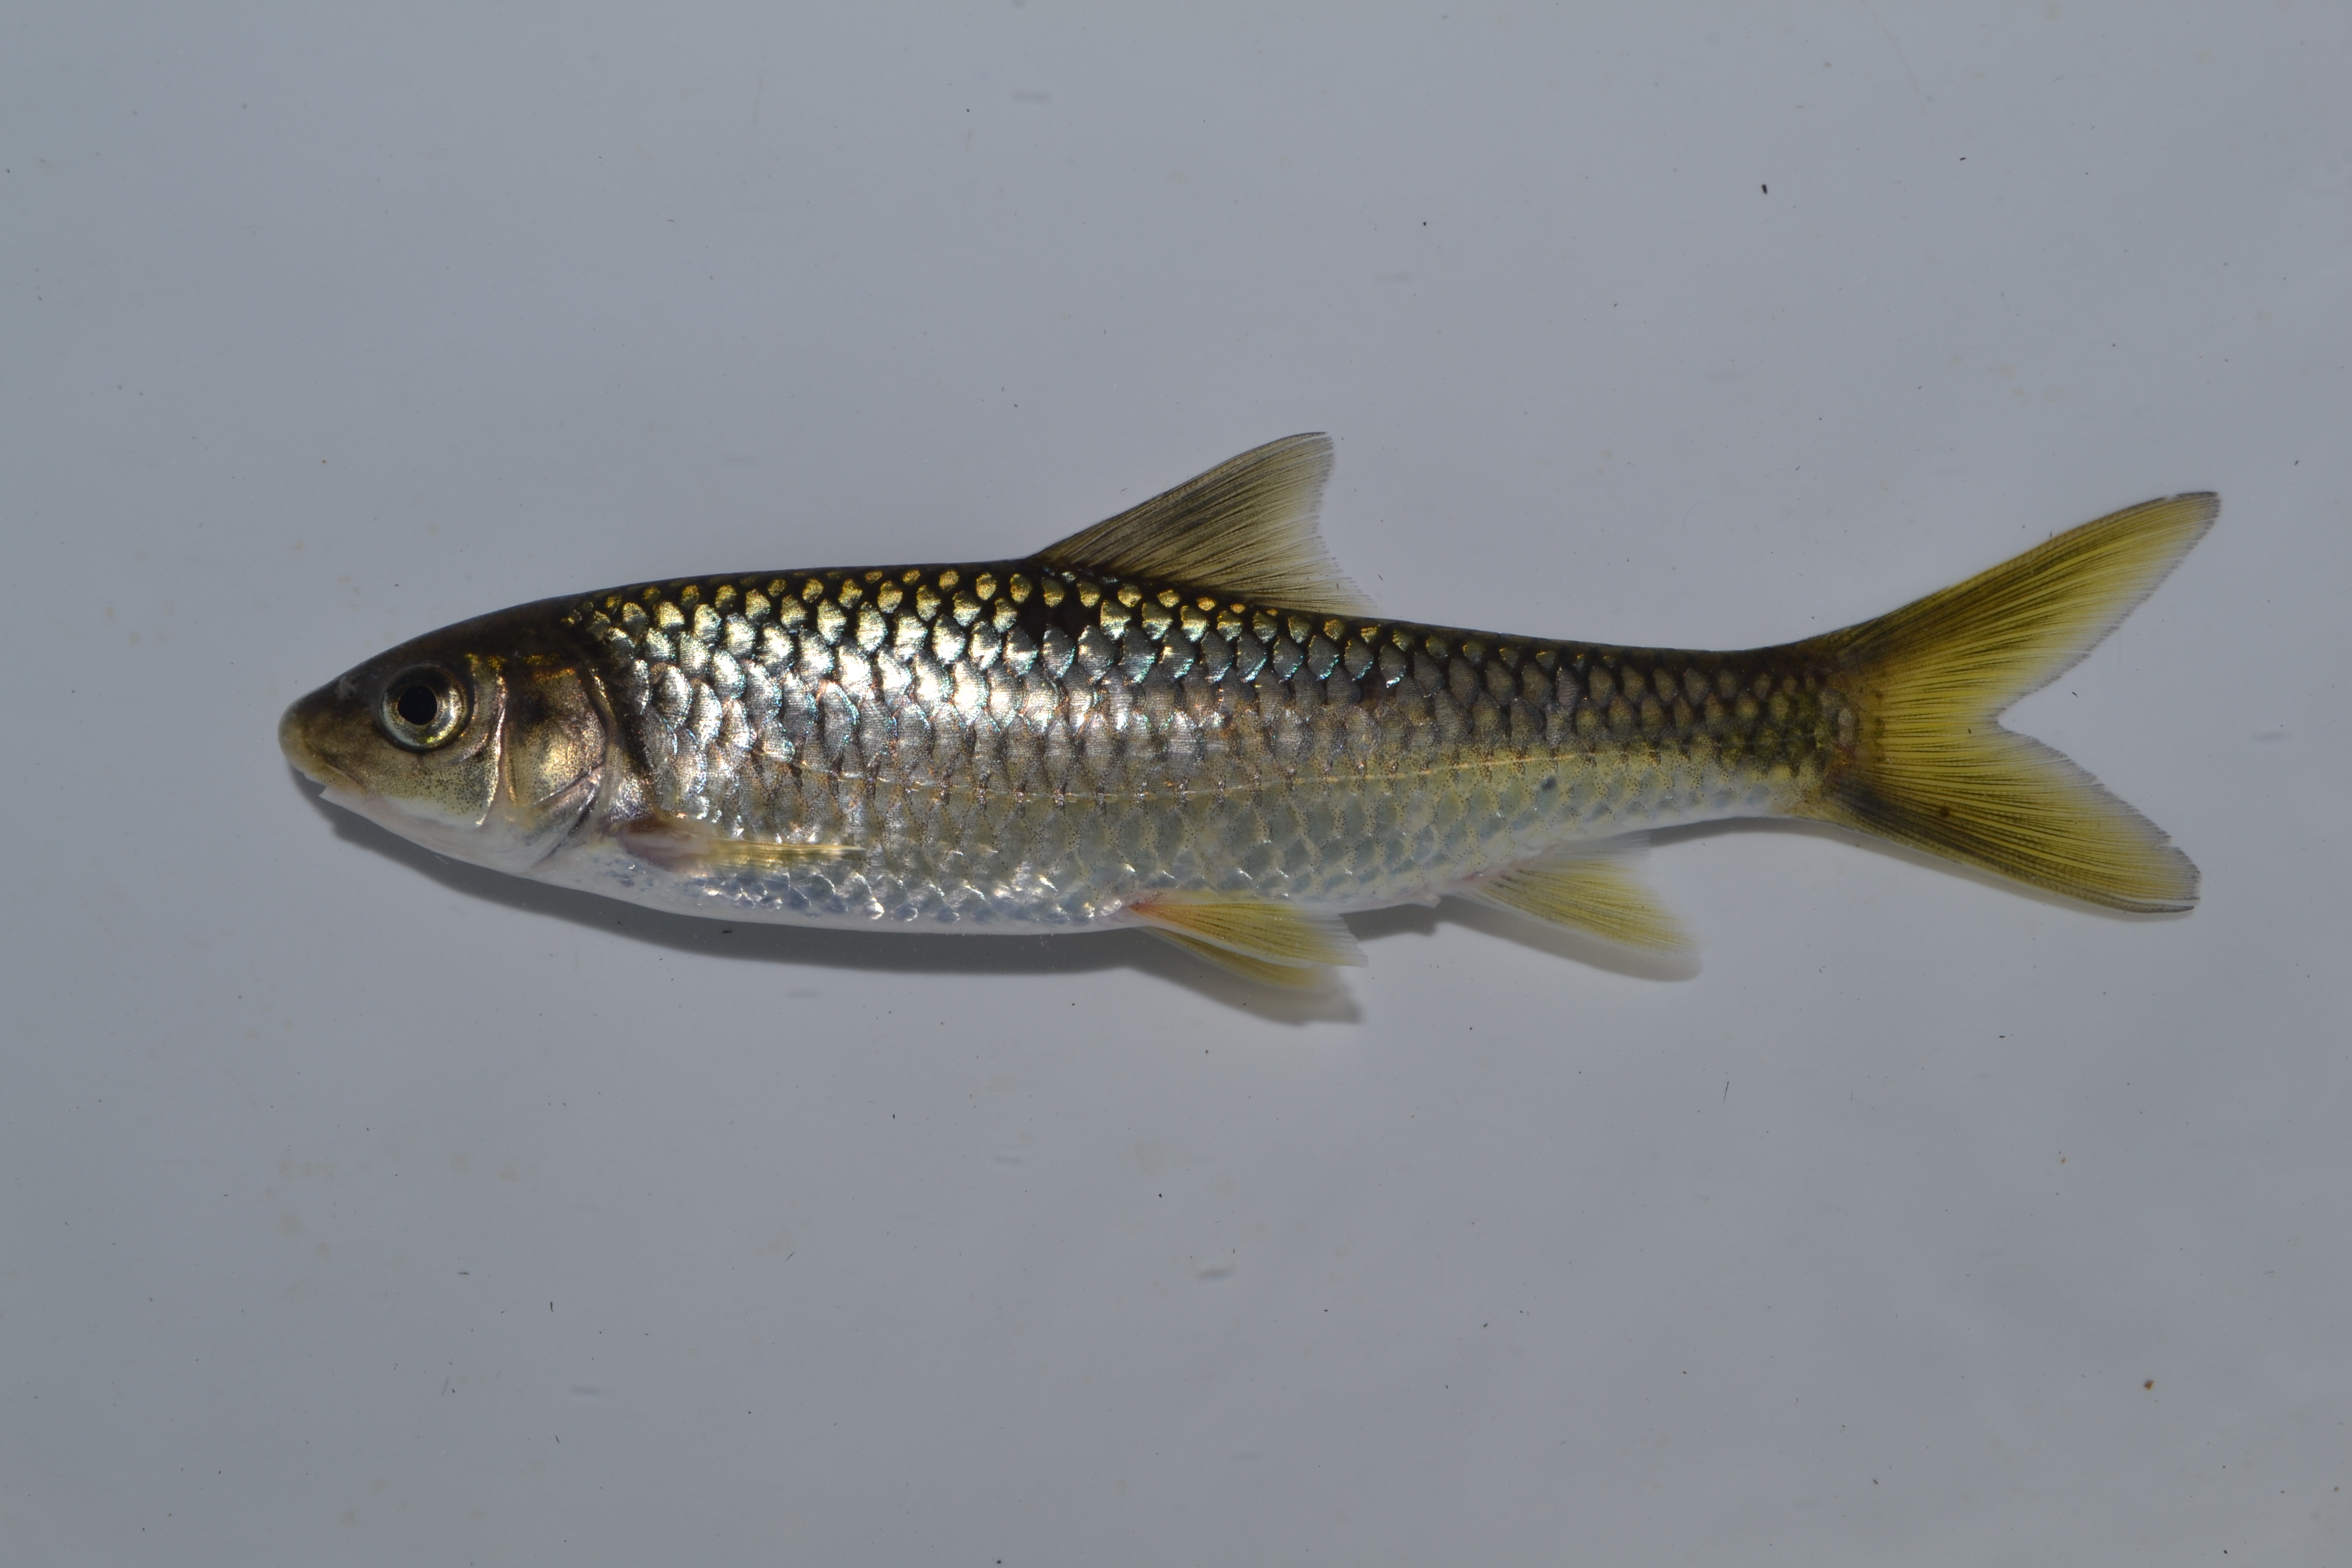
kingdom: Animalia
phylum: Chordata
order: Cypriniformes
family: Cyprinidae
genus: Labeobarbus
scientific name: Labeobarbus nelspruitensis
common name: Incomati chiselmouth
